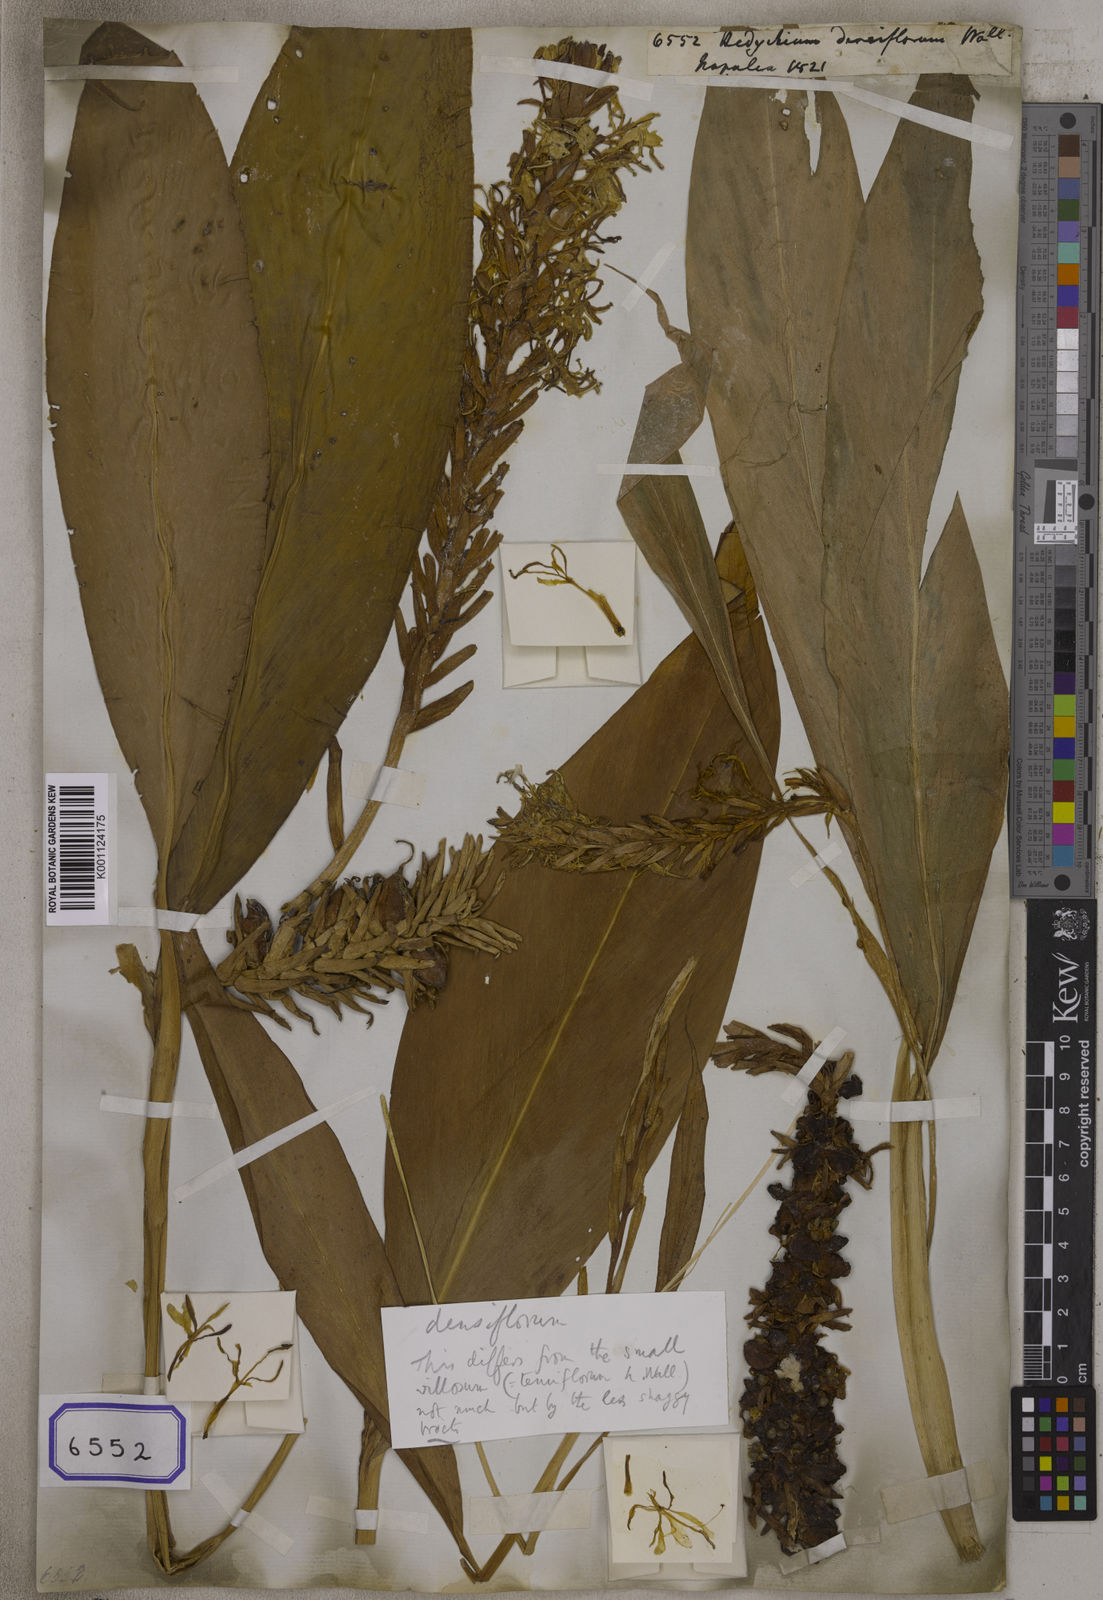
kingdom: Plantae
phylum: Tracheophyta
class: Liliopsida
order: Zingiberales
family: Zingiberaceae
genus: Hedychium
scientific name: Hedychium densiflorum
